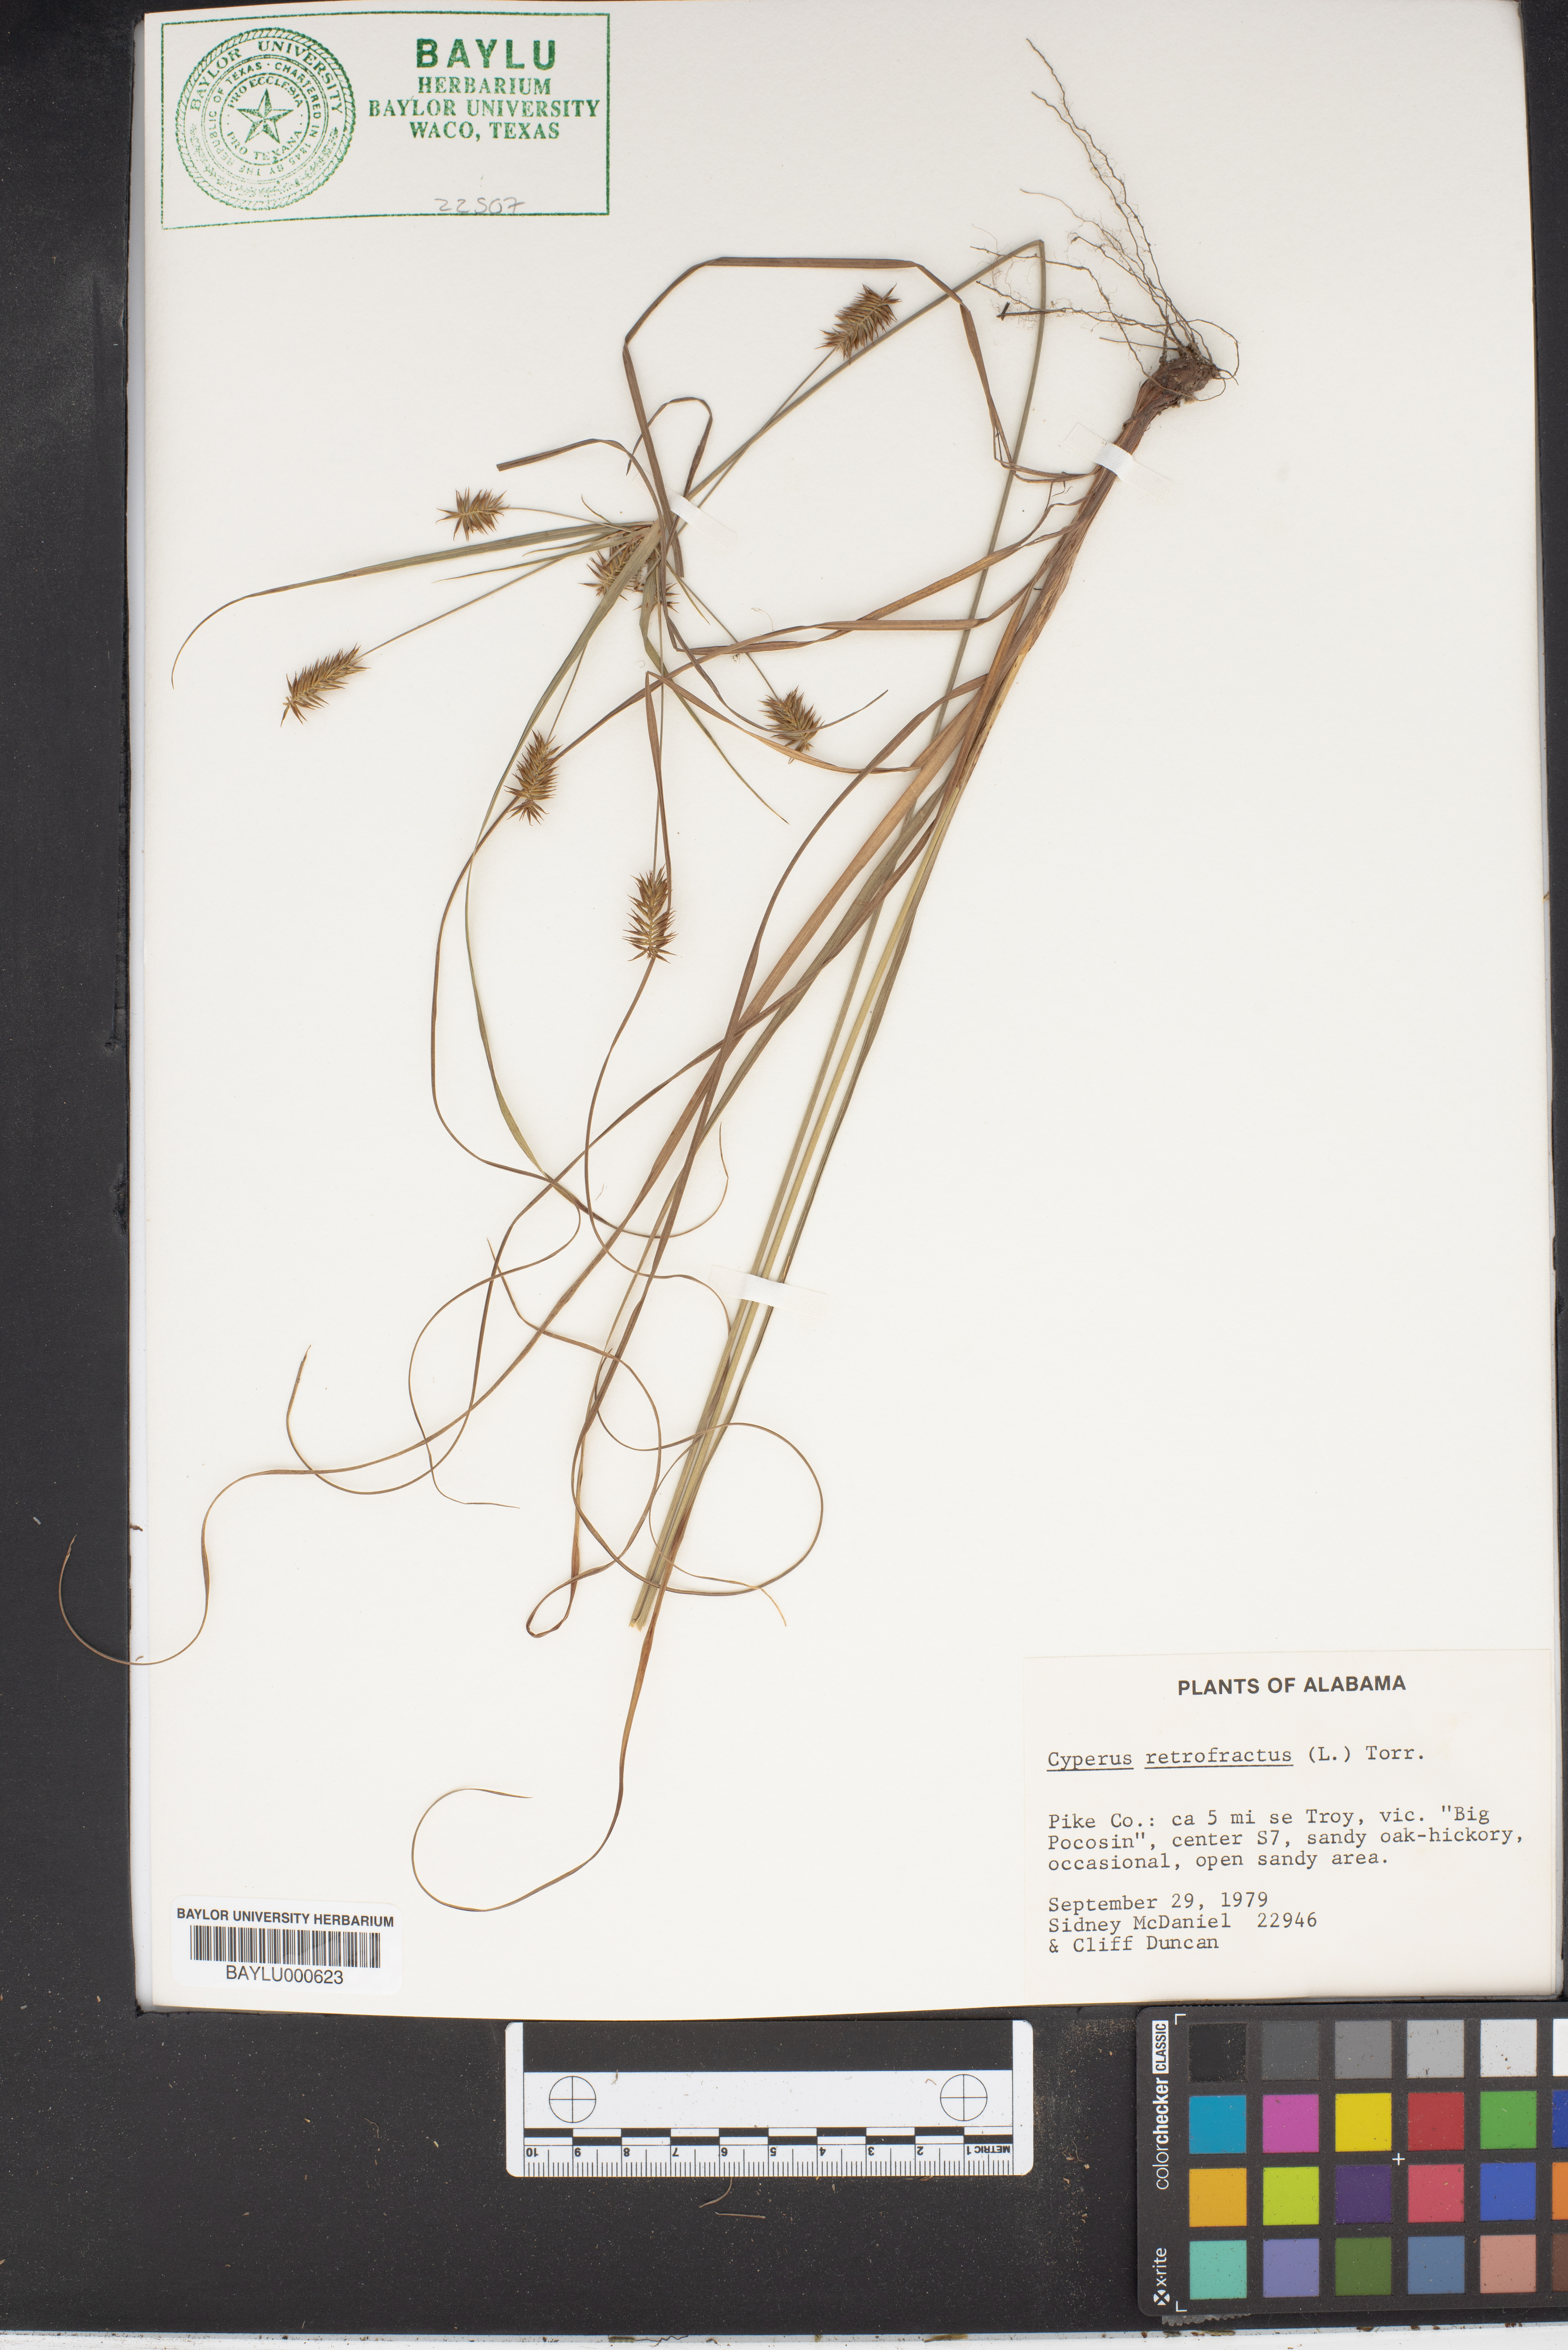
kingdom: Plantae
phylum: Tracheophyta
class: Liliopsida
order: Poales
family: Cyperaceae
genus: Cyperus
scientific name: Cyperus retrofractus
